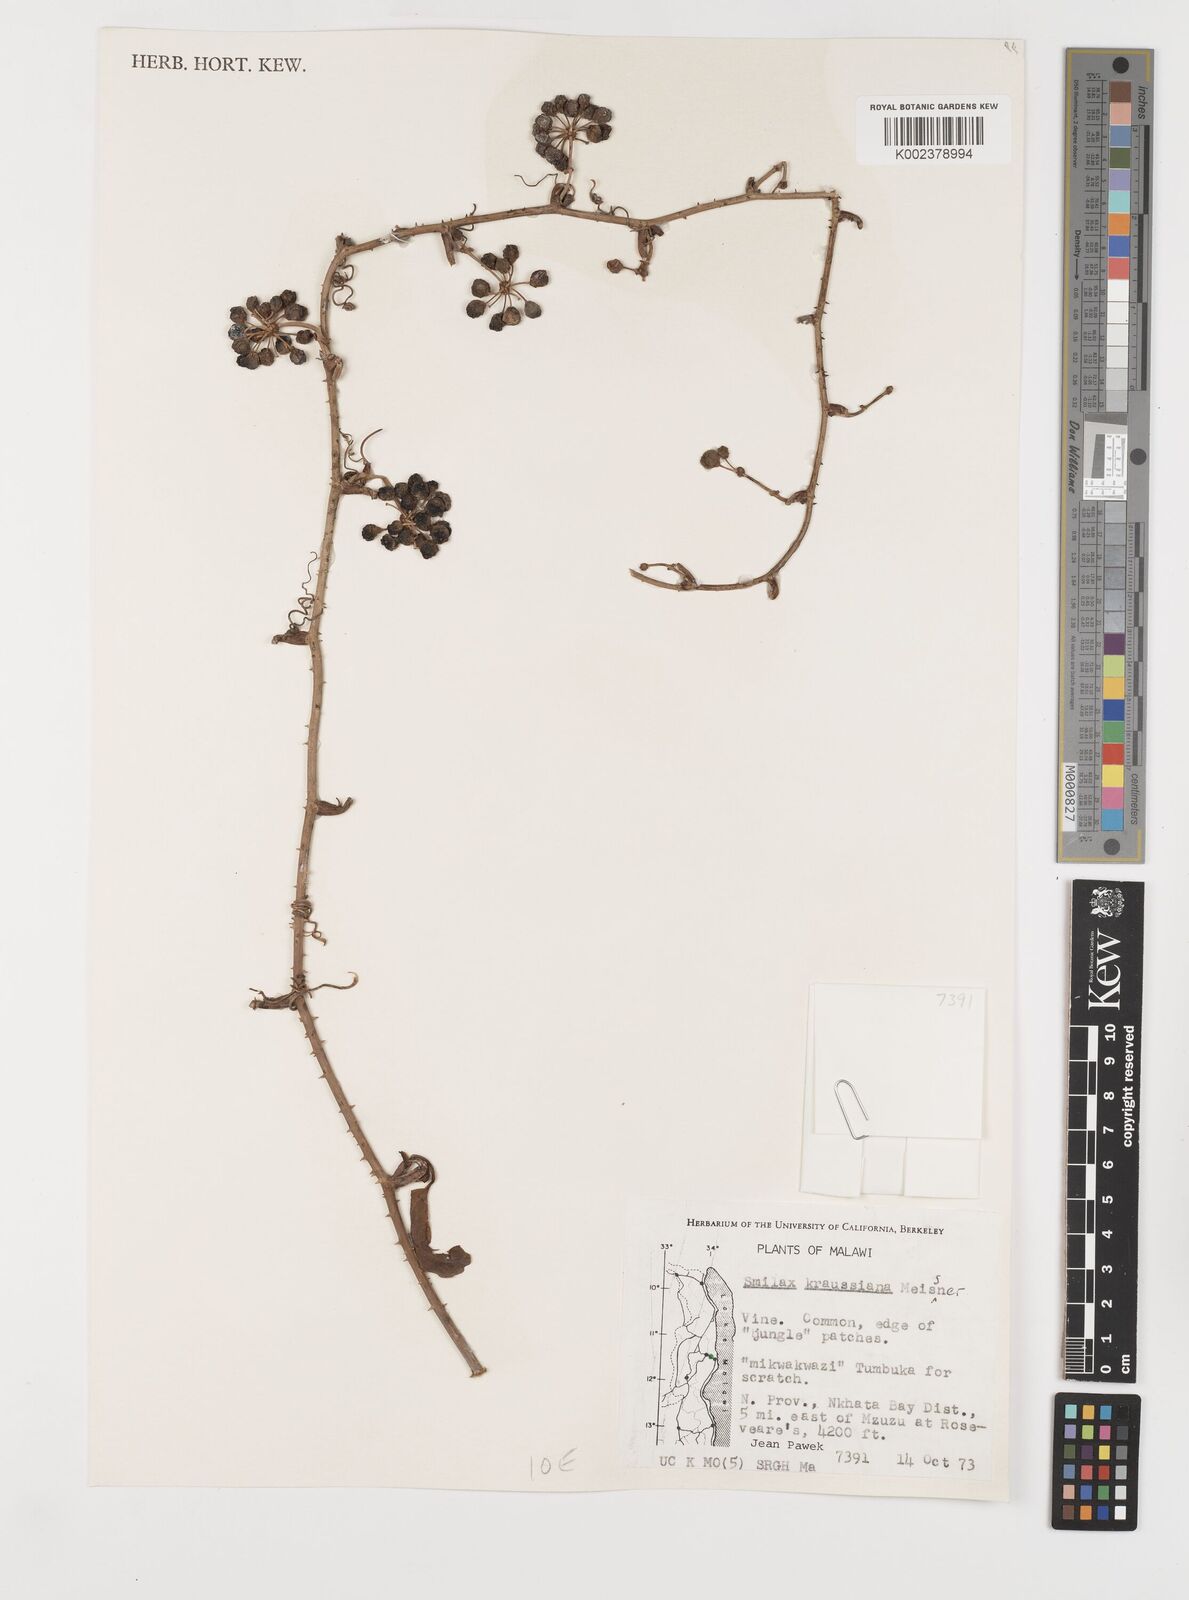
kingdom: Plantae
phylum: Tracheophyta
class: Liliopsida
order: Liliales
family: Smilacaceae
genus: Smilax
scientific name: Smilax anceps
